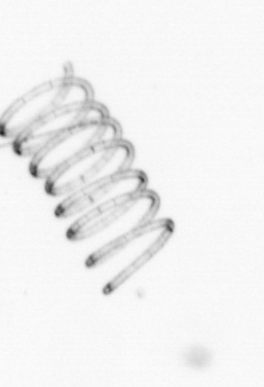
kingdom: Chromista
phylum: Ochrophyta
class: Bacillariophyceae
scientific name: Bacillariophyceae
